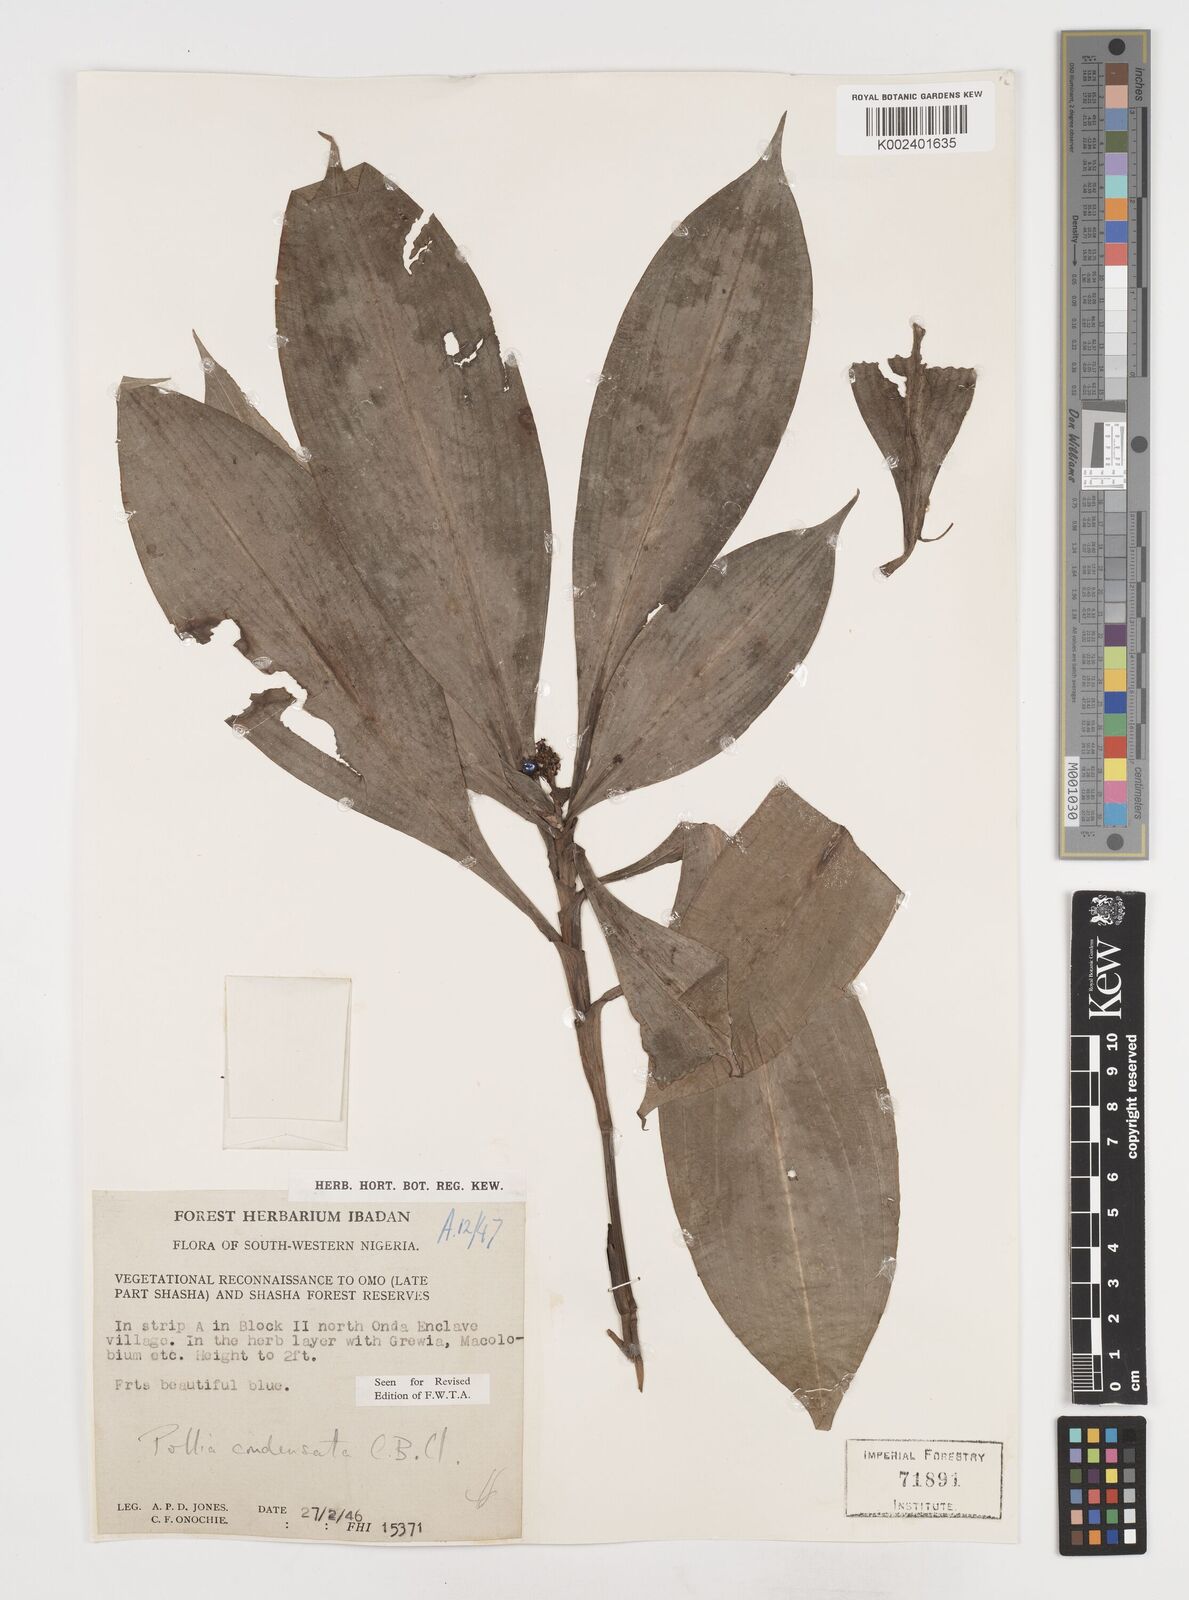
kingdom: Plantae
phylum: Tracheophyta
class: Liliopsida
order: Commelinales
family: Commelinaceae
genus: Pollia
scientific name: Pollia condensata
